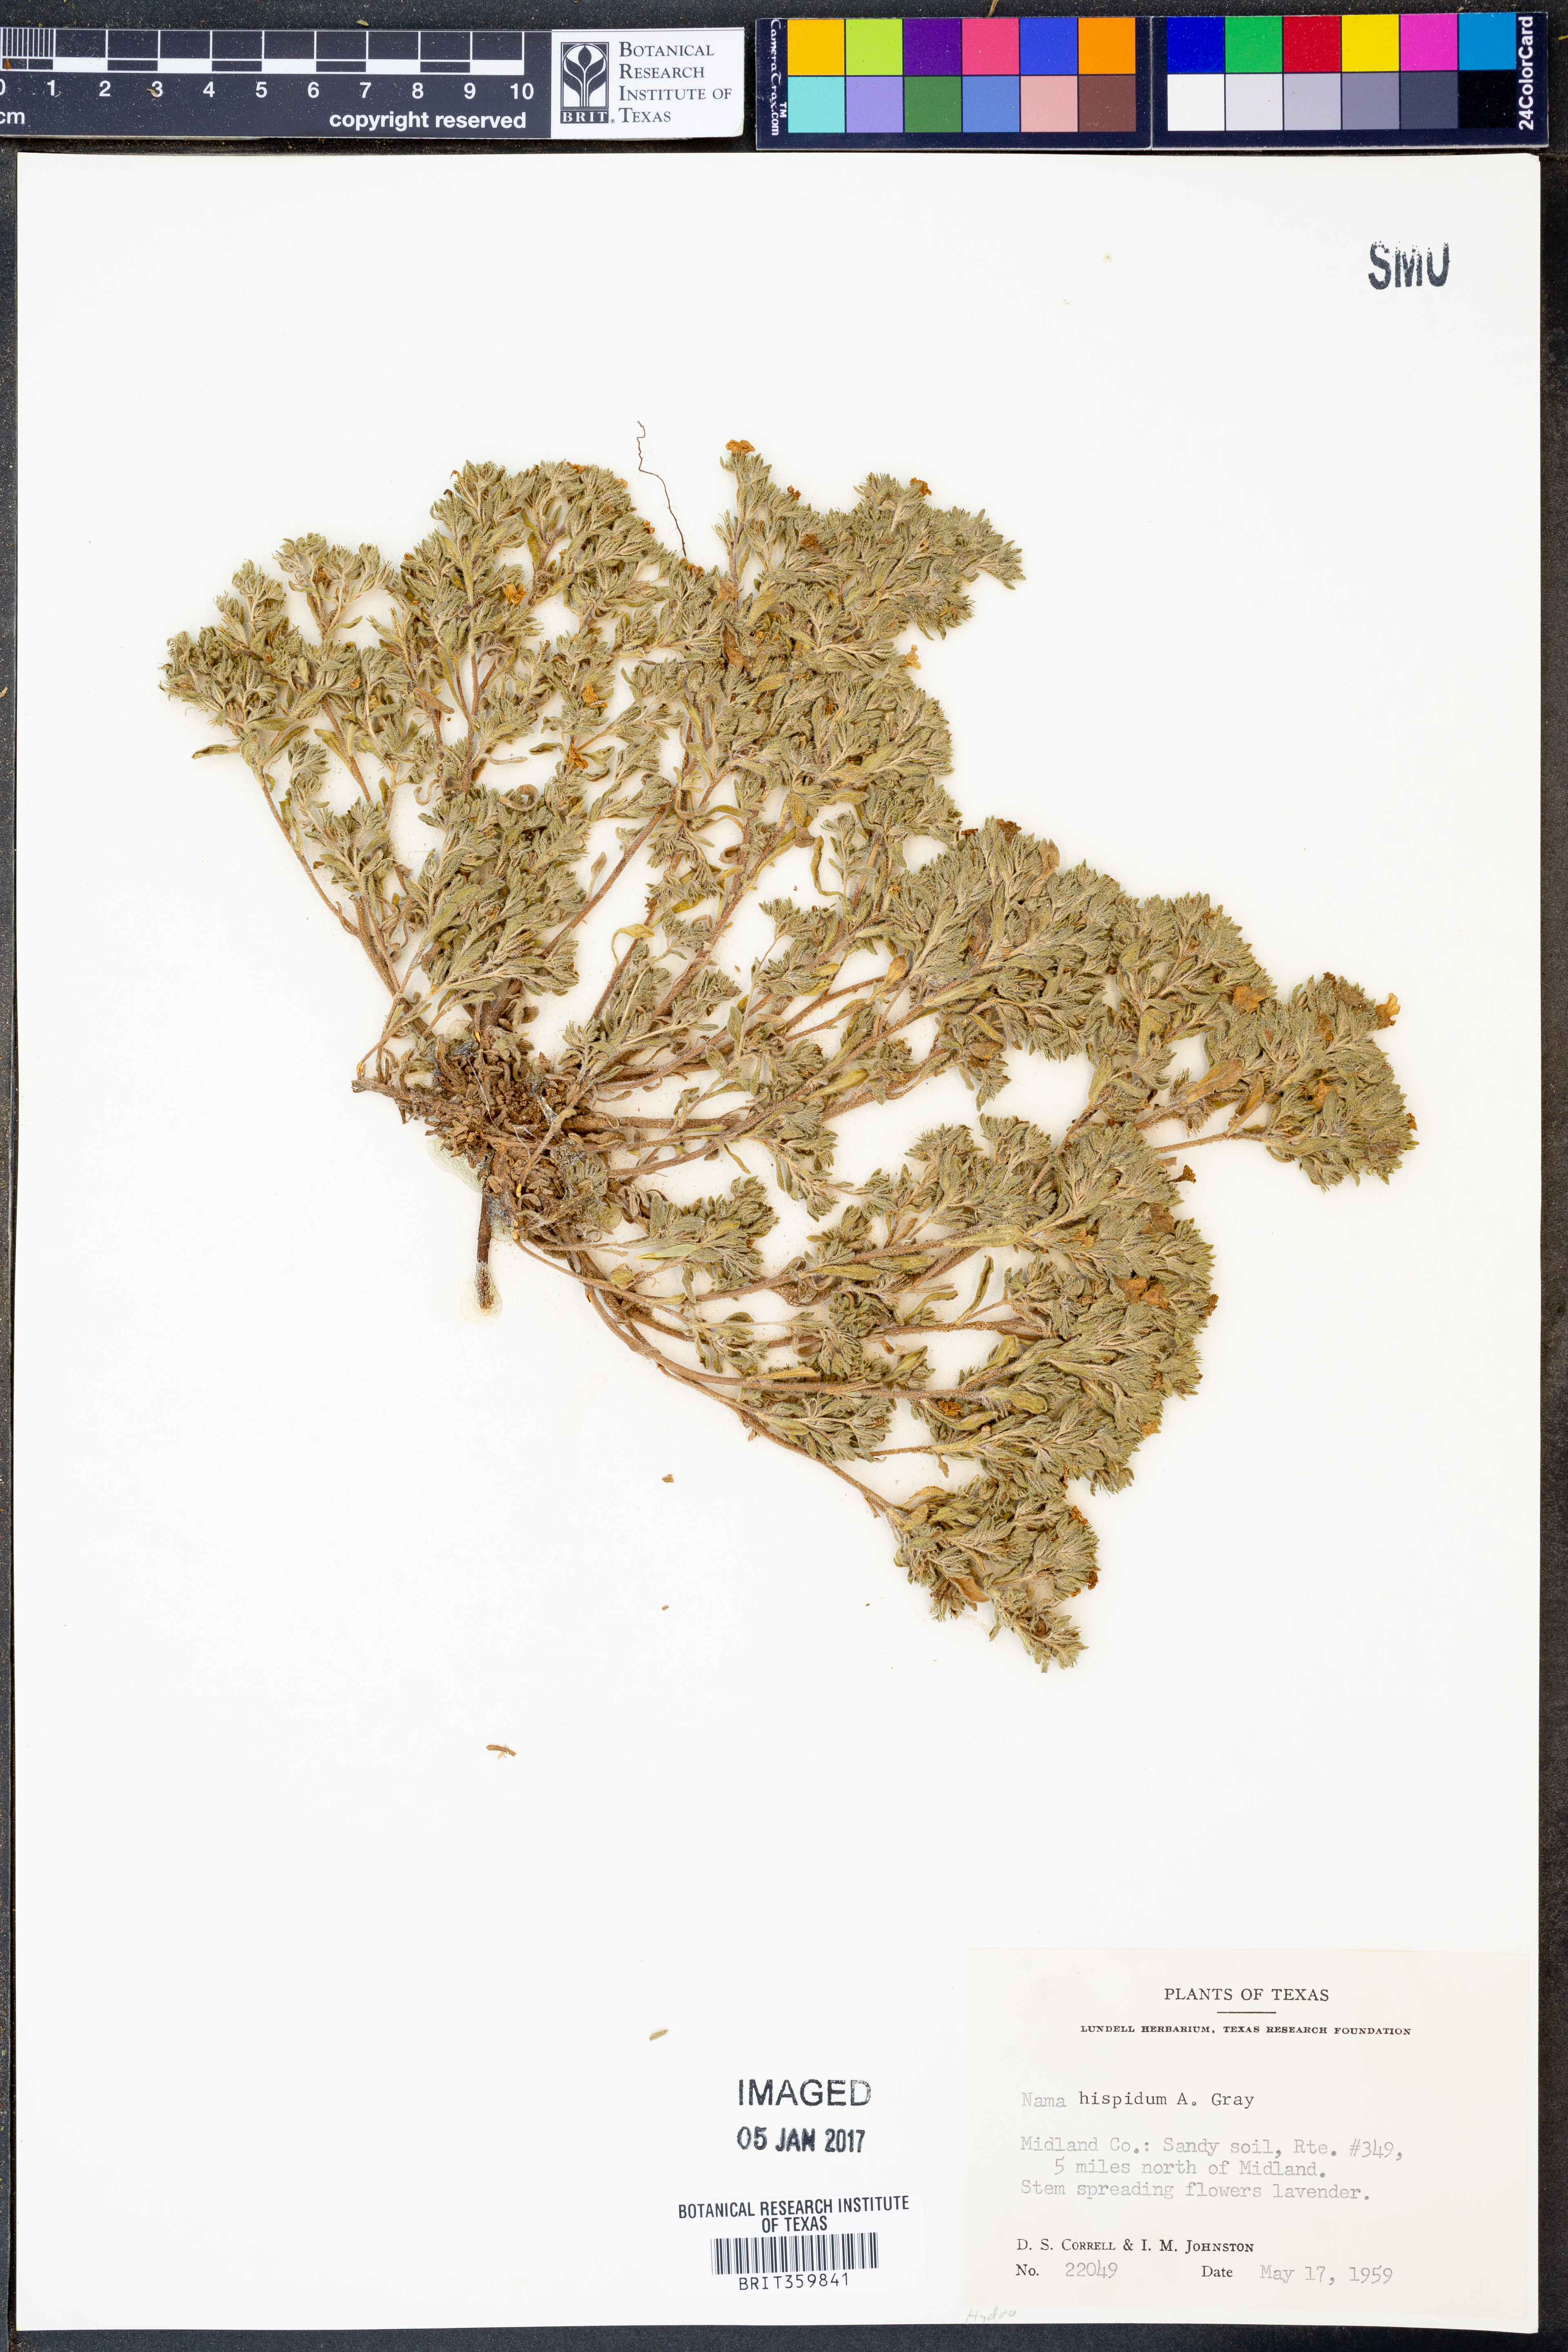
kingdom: Plantae
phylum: Tracheophyta
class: Magnoliopsida
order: Boraginales
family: Namaceae
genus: Nama
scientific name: Nama hispida
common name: Bristly nama
